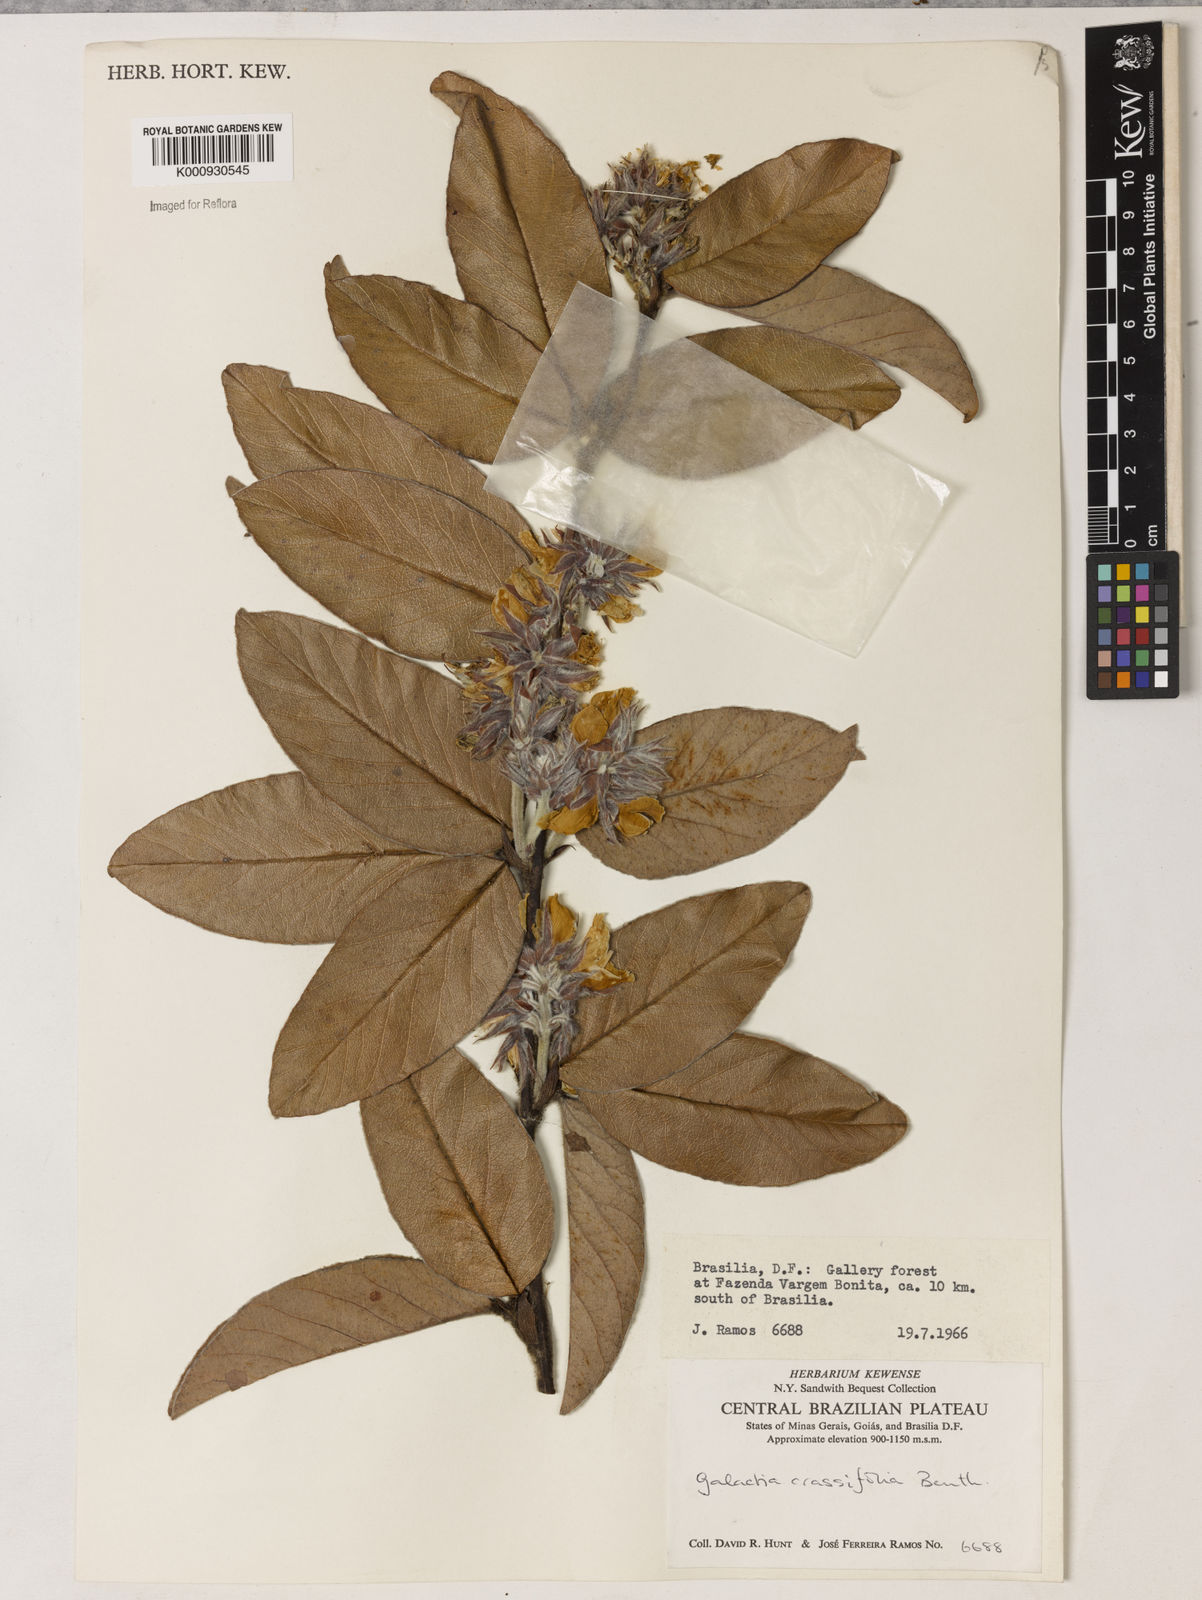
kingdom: Plantae
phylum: Tracheophyta
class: Magnoliopsida
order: Fabales
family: Fabaceae
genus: Betencourtia
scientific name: Betencourtia crassifolia
